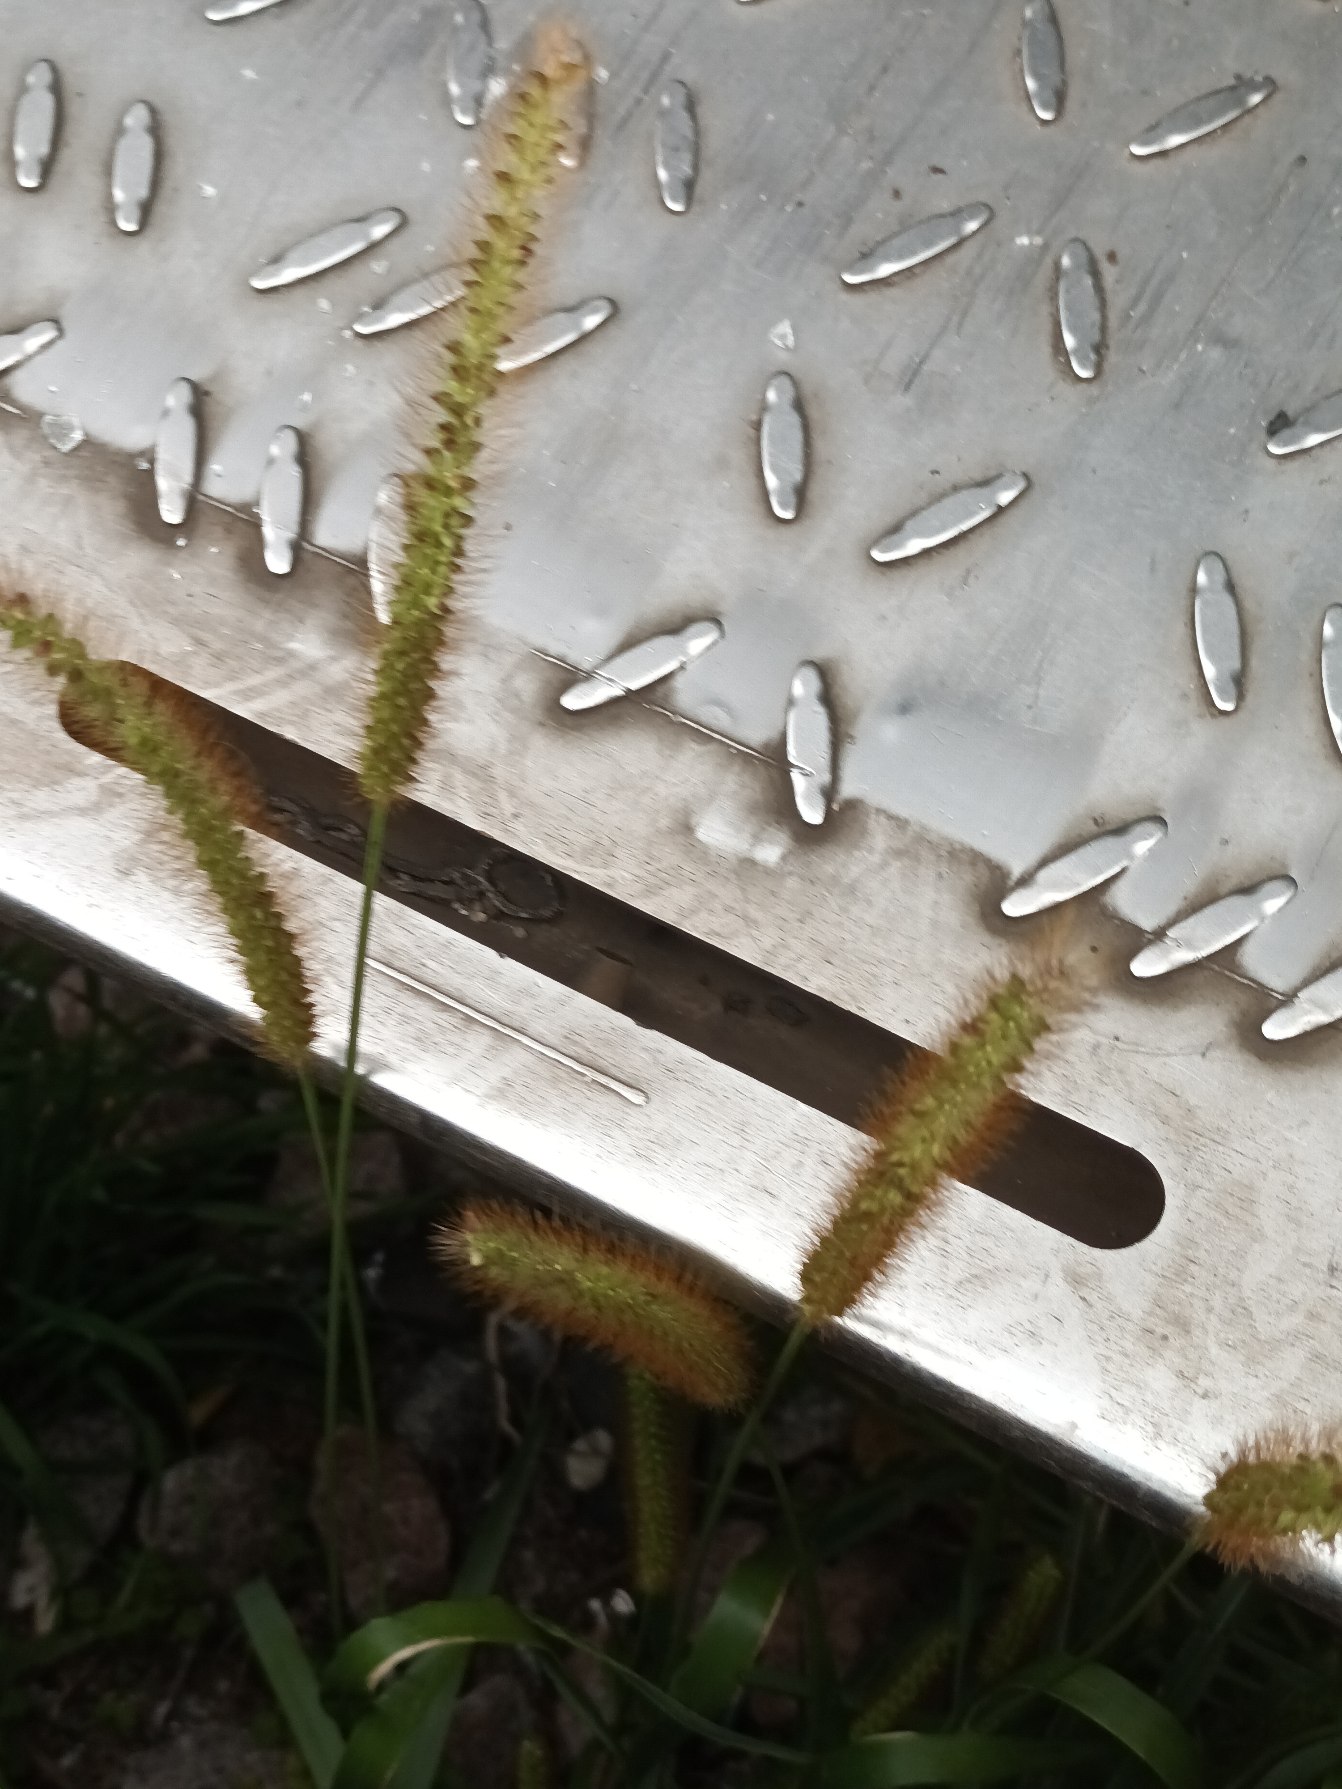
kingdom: Plantae
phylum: Tracheophyta
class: Liliopsida
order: Poales
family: Poaceae
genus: Setaria
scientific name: Setaria pumila
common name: Blågrøn skærmaks
